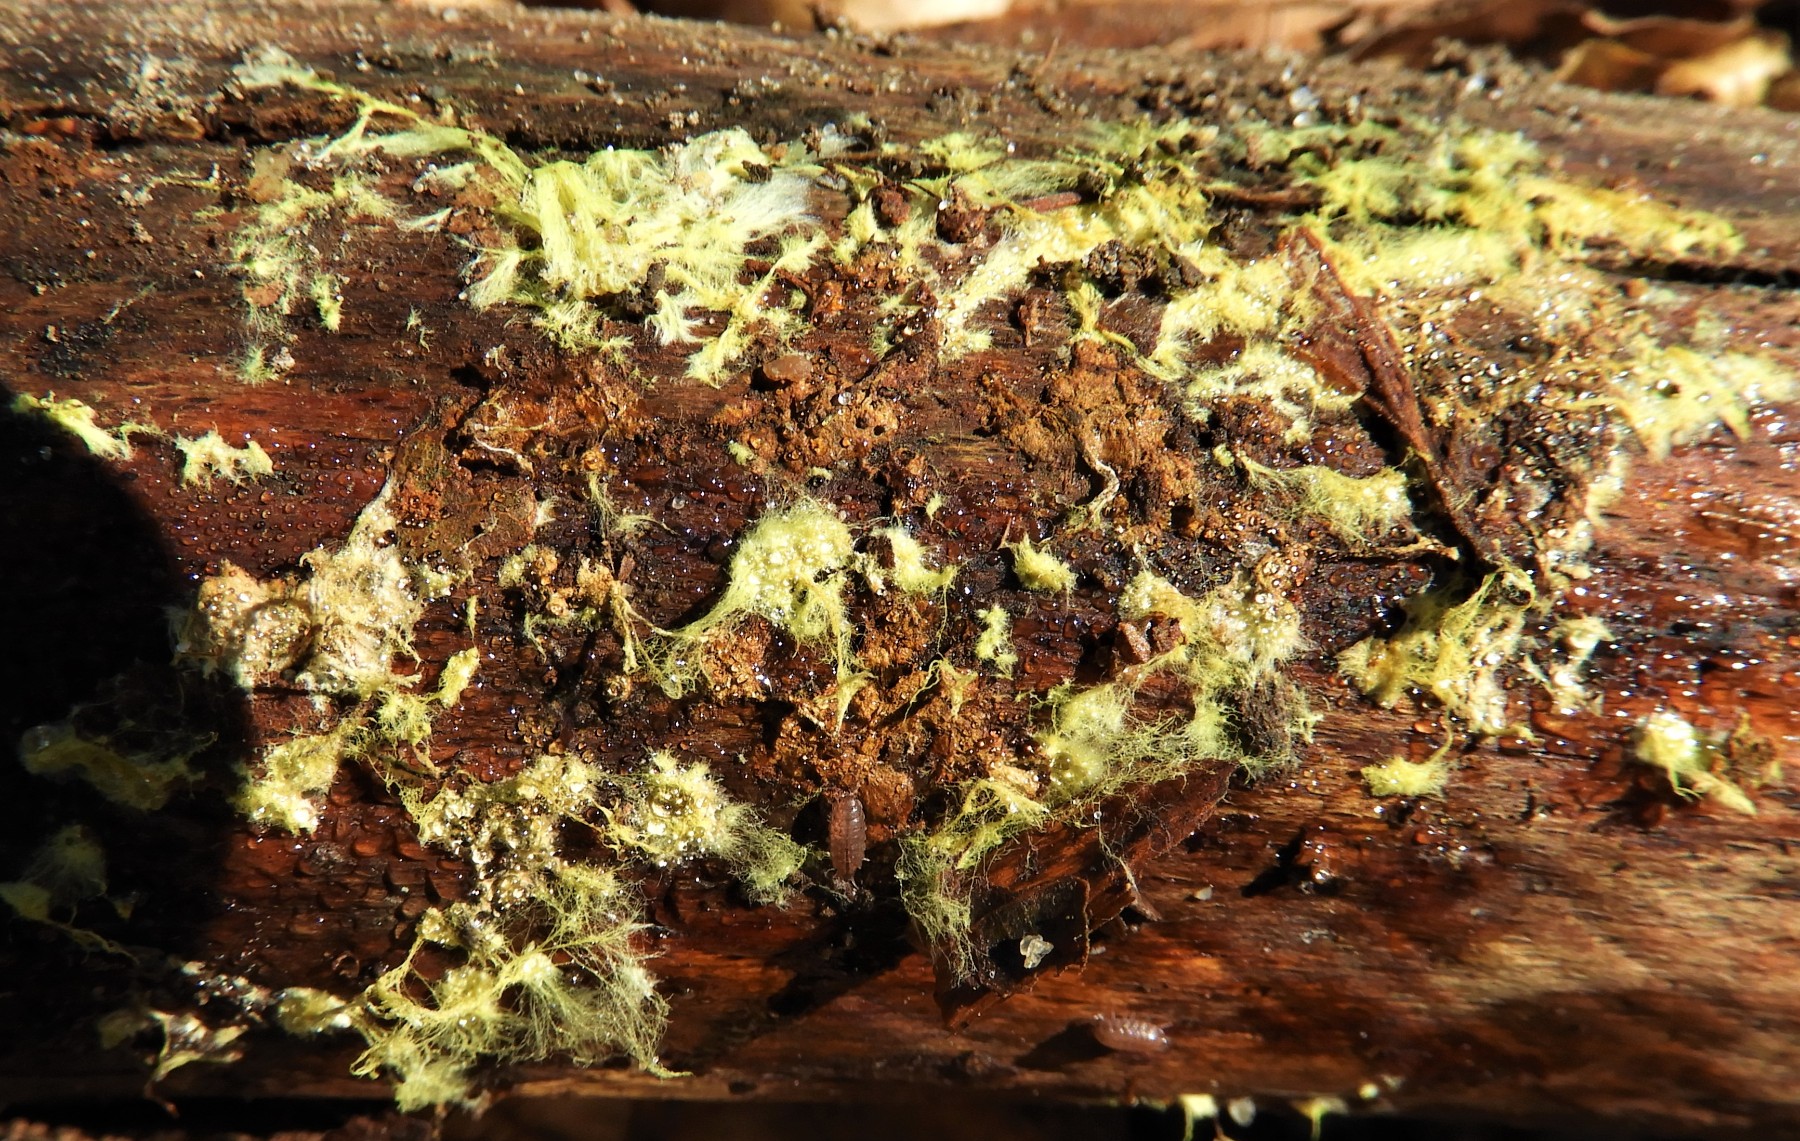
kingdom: Fungi
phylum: Basidiomycota
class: Agaricomycetes
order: Russulales
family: Xenasmataceae
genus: Xenasmatella
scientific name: Xenasmatella vaga
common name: svovl-strenghinde
